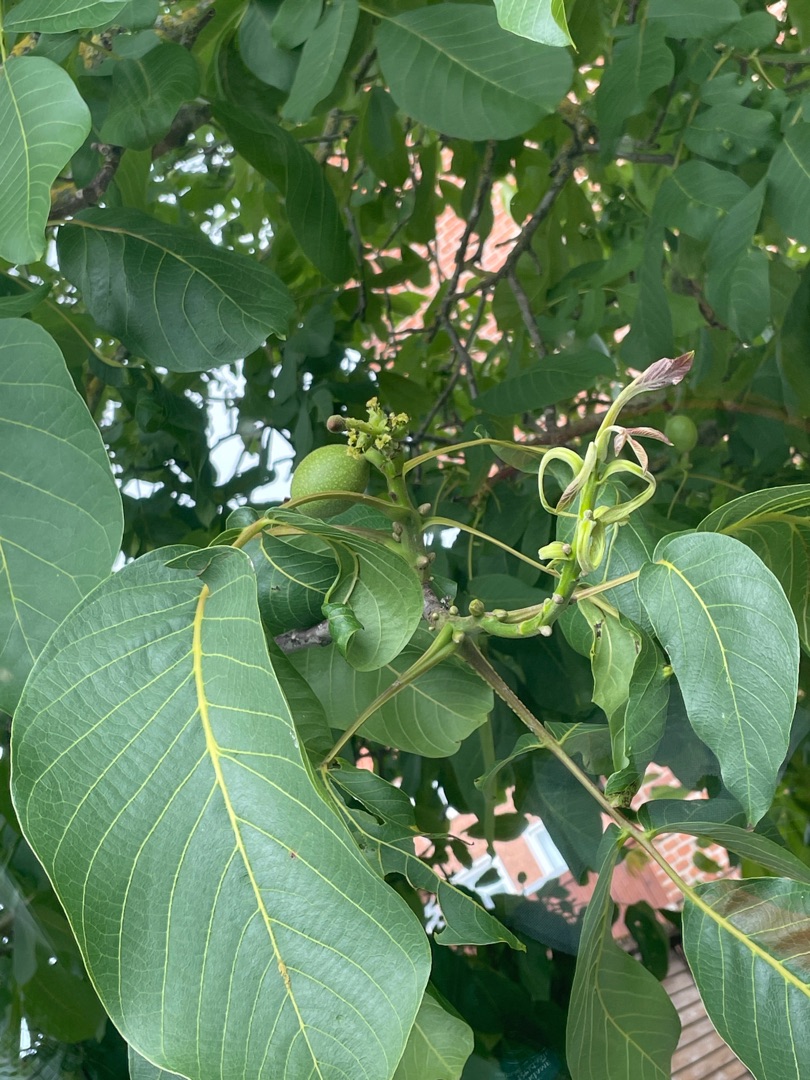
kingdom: Plantae
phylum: Tracheophyta
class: Magnoliopsida
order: Fagales
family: Juglandaceae
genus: Juglans
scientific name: Juglans regia
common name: Almindelig valnød
